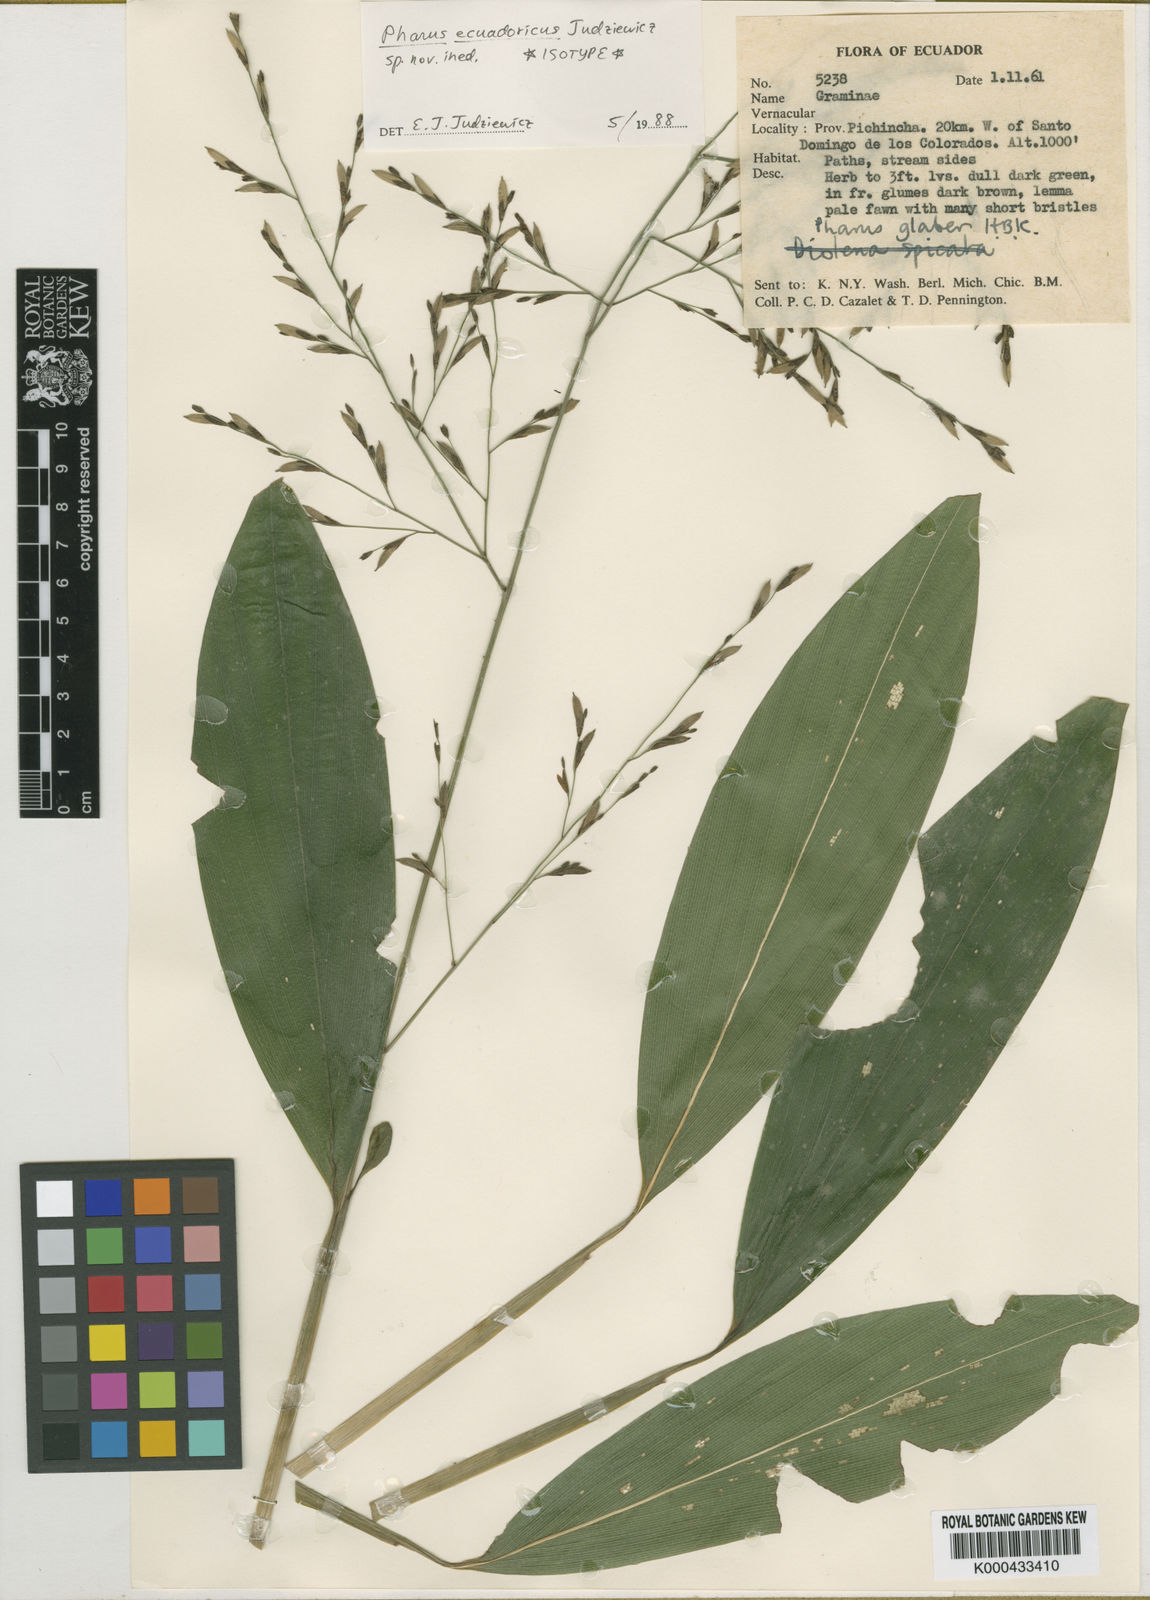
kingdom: Plantae
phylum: Tracheophyta
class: Liliopsida
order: Poales
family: Poaceae
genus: Pharus
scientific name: Pharus ecuadoricus
